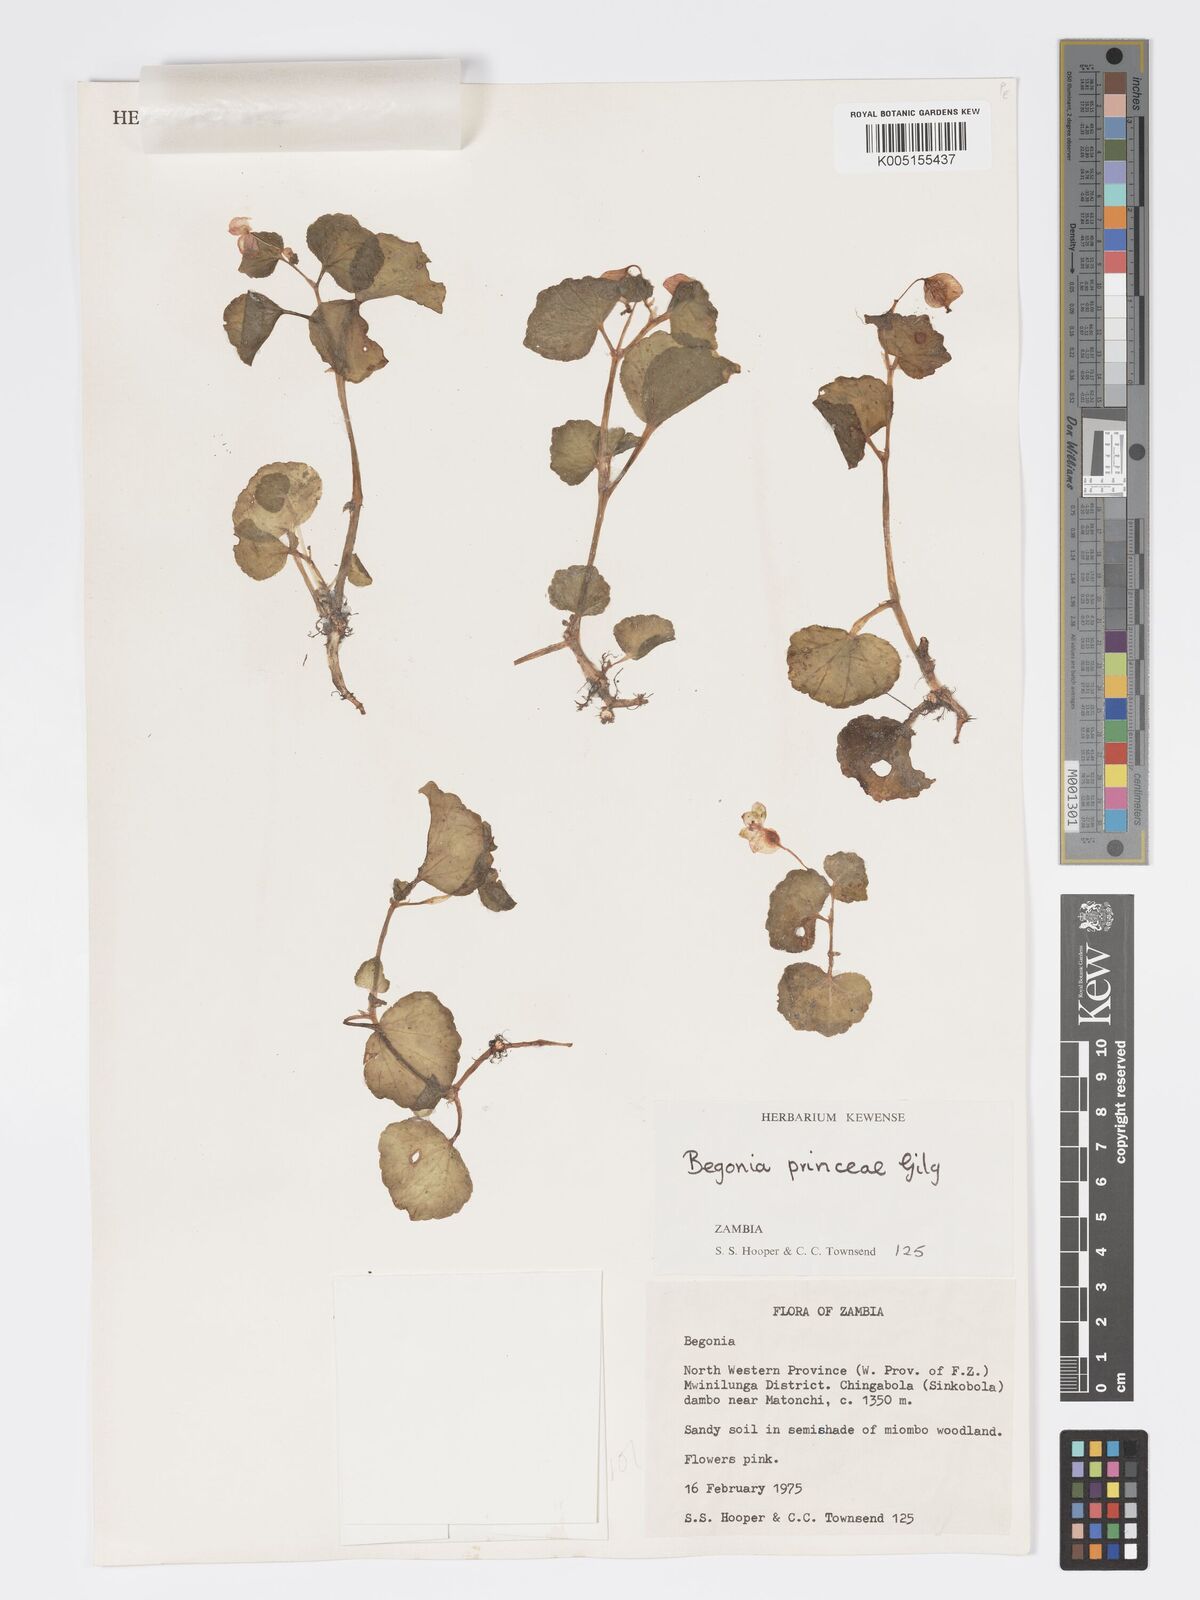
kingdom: Plantae
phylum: Tracheophyta
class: Magnoliopsida
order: Cucurbitales
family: Begoniaceae
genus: Begonia
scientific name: Begonia princeae
